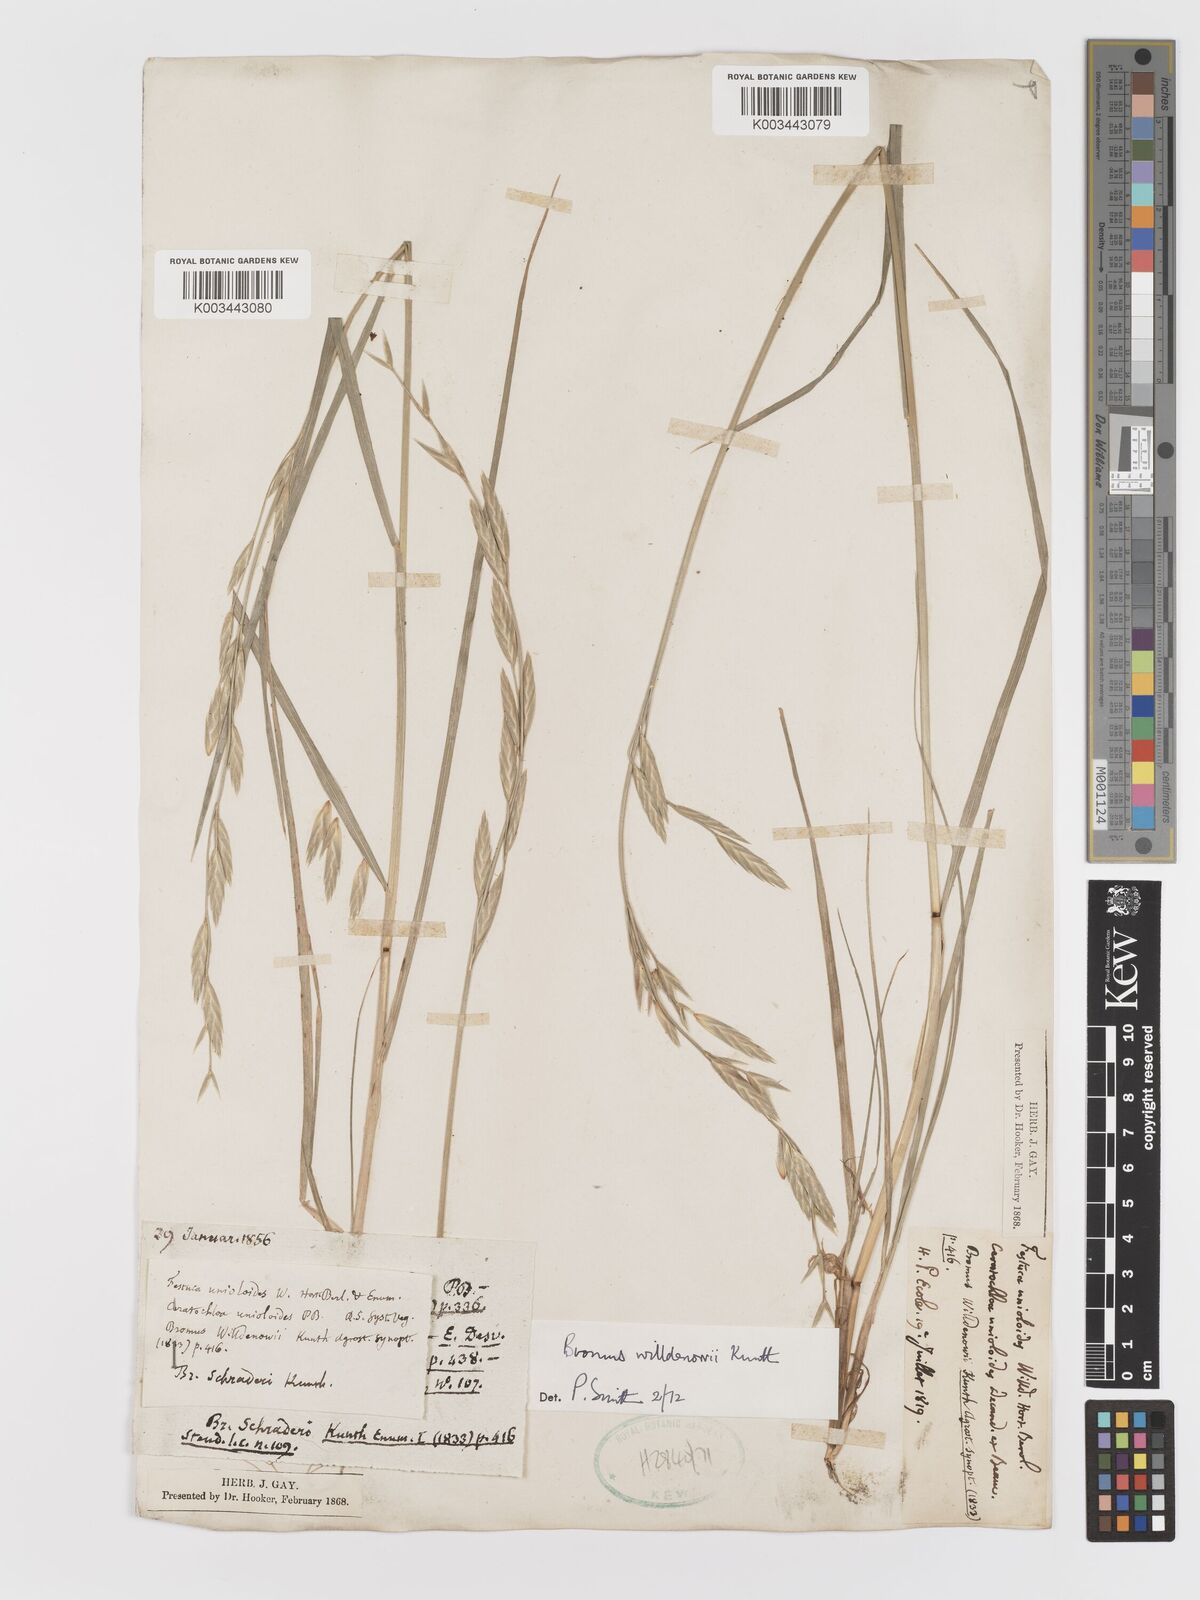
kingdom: Plantae
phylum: Tracheophyta
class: Liliopsida
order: Poales
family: Poaceae
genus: Bromus
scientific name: Bromus catharticus
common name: Rescuegrass
